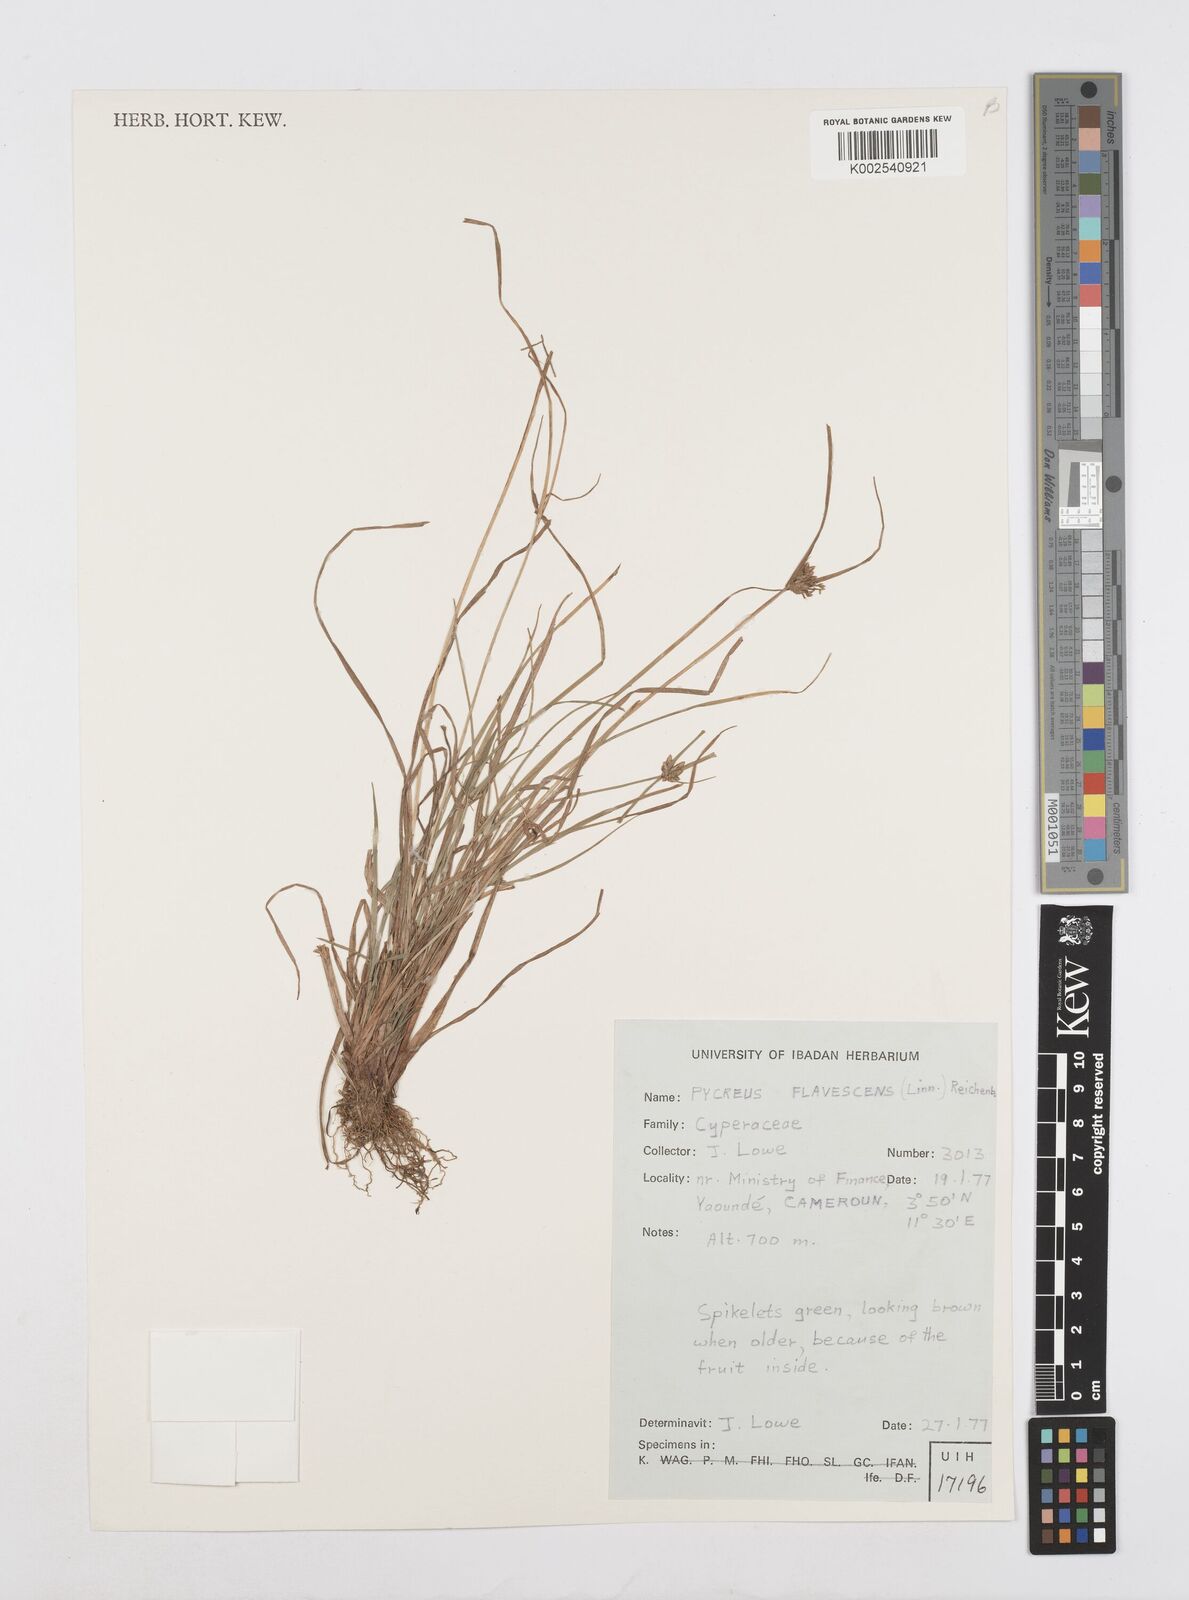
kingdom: Plantae
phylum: Tracheophyta
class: Liliopsida
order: Poales
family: Cyperaceae
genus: Cyperus
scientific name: Cyperus flavescens
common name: Yellow galingale
